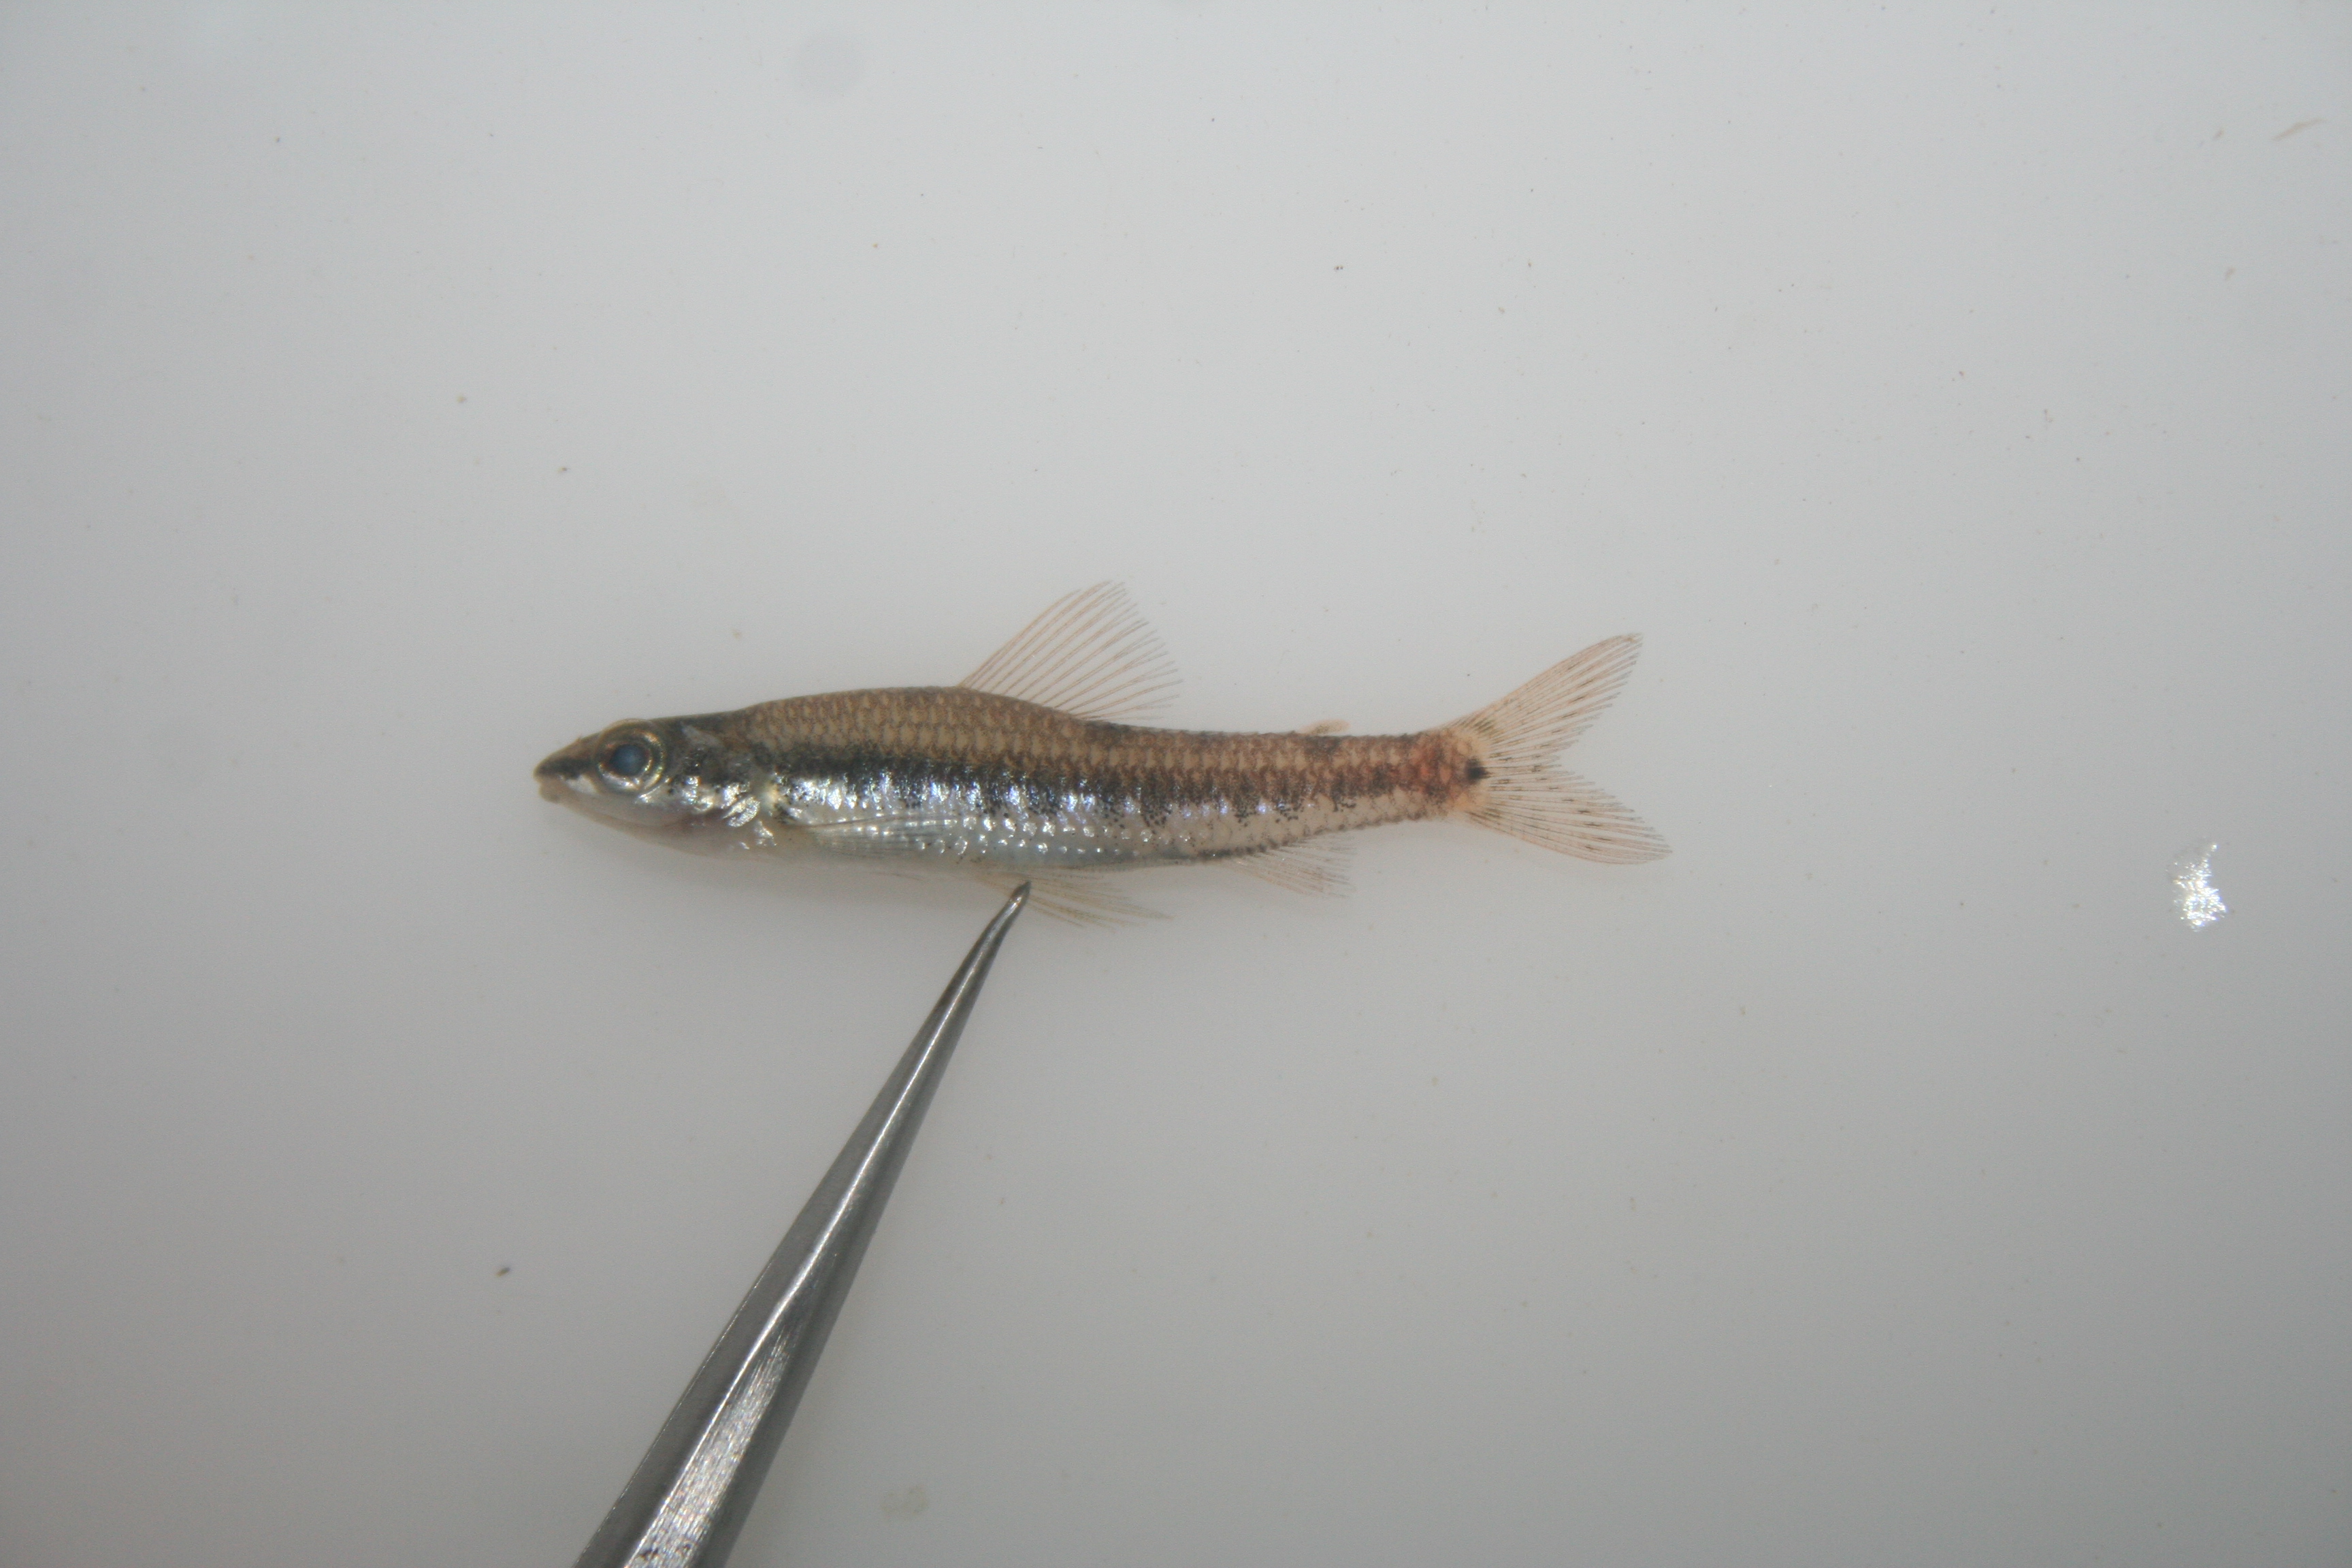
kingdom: Animalia
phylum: Chordata
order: Characiformes
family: Distichodontidae
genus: Nannocharax
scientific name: Nannocharax
